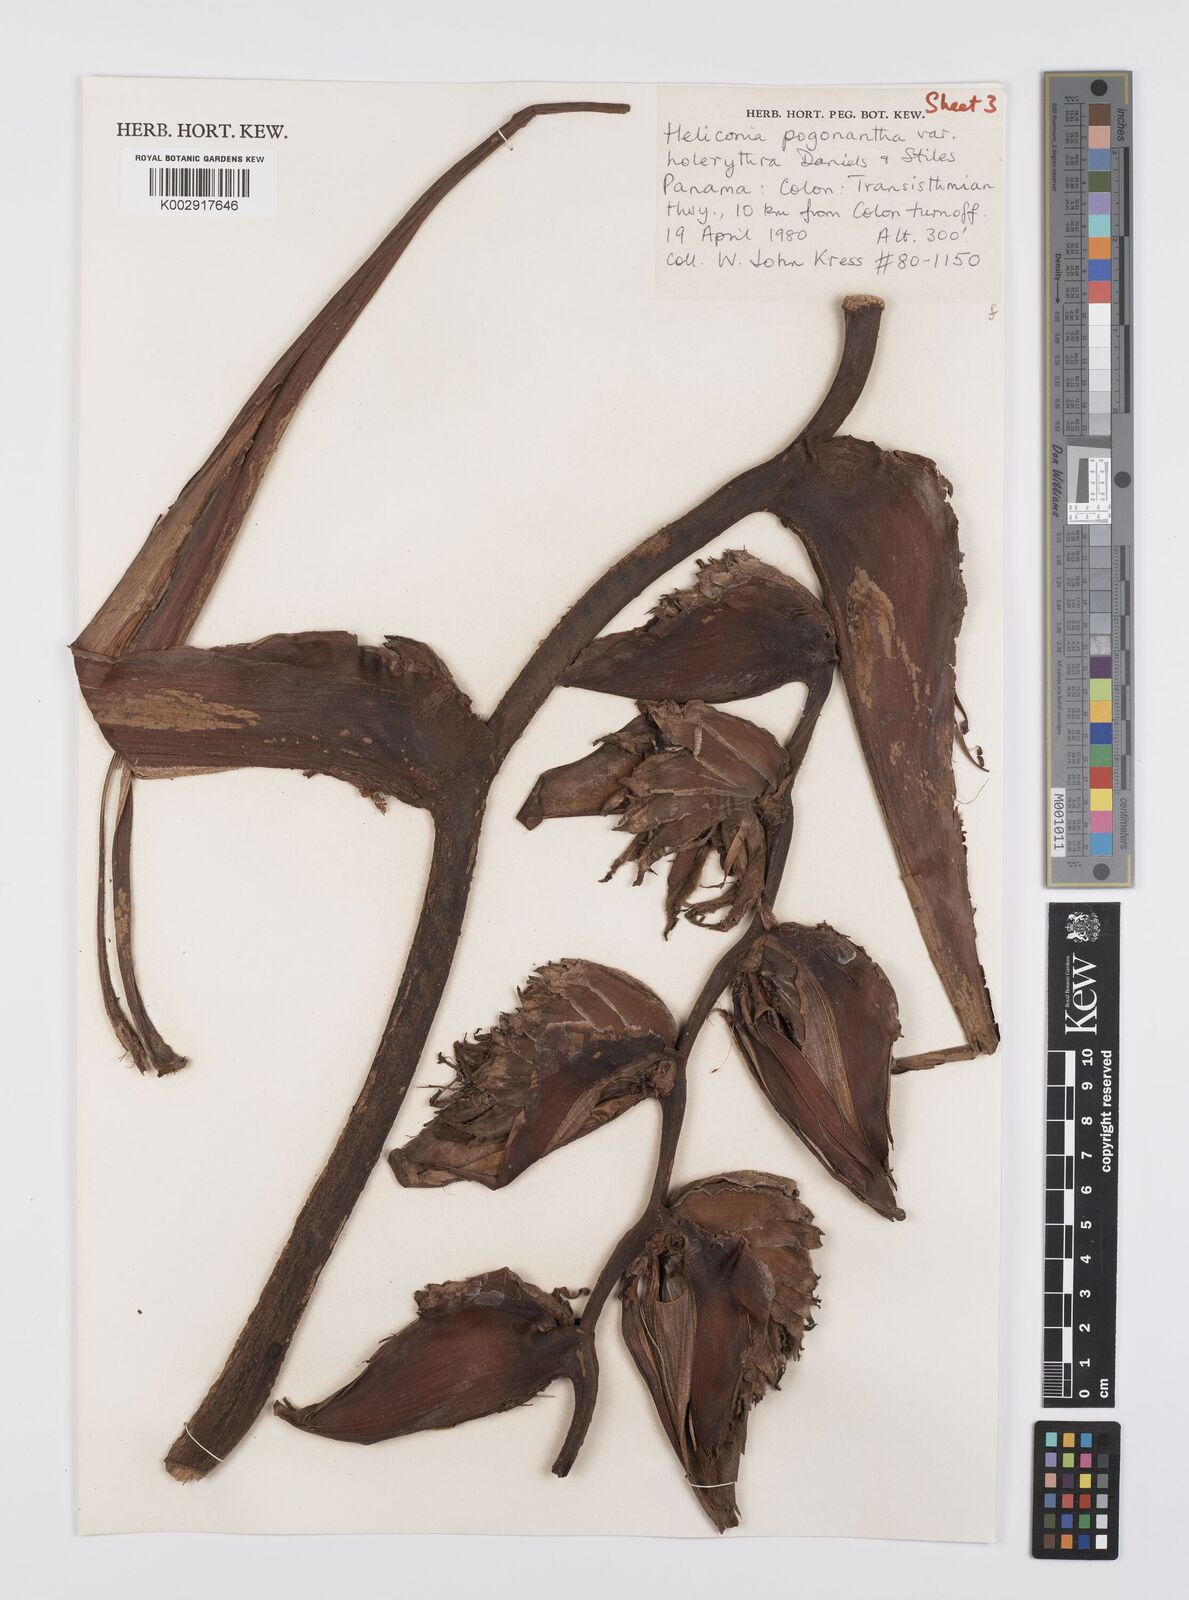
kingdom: Plantae
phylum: Tracheophyta
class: Liliopsida
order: Zingiberales
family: Heliconiaceae
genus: Heliconia
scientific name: Heliconia pogonantha
